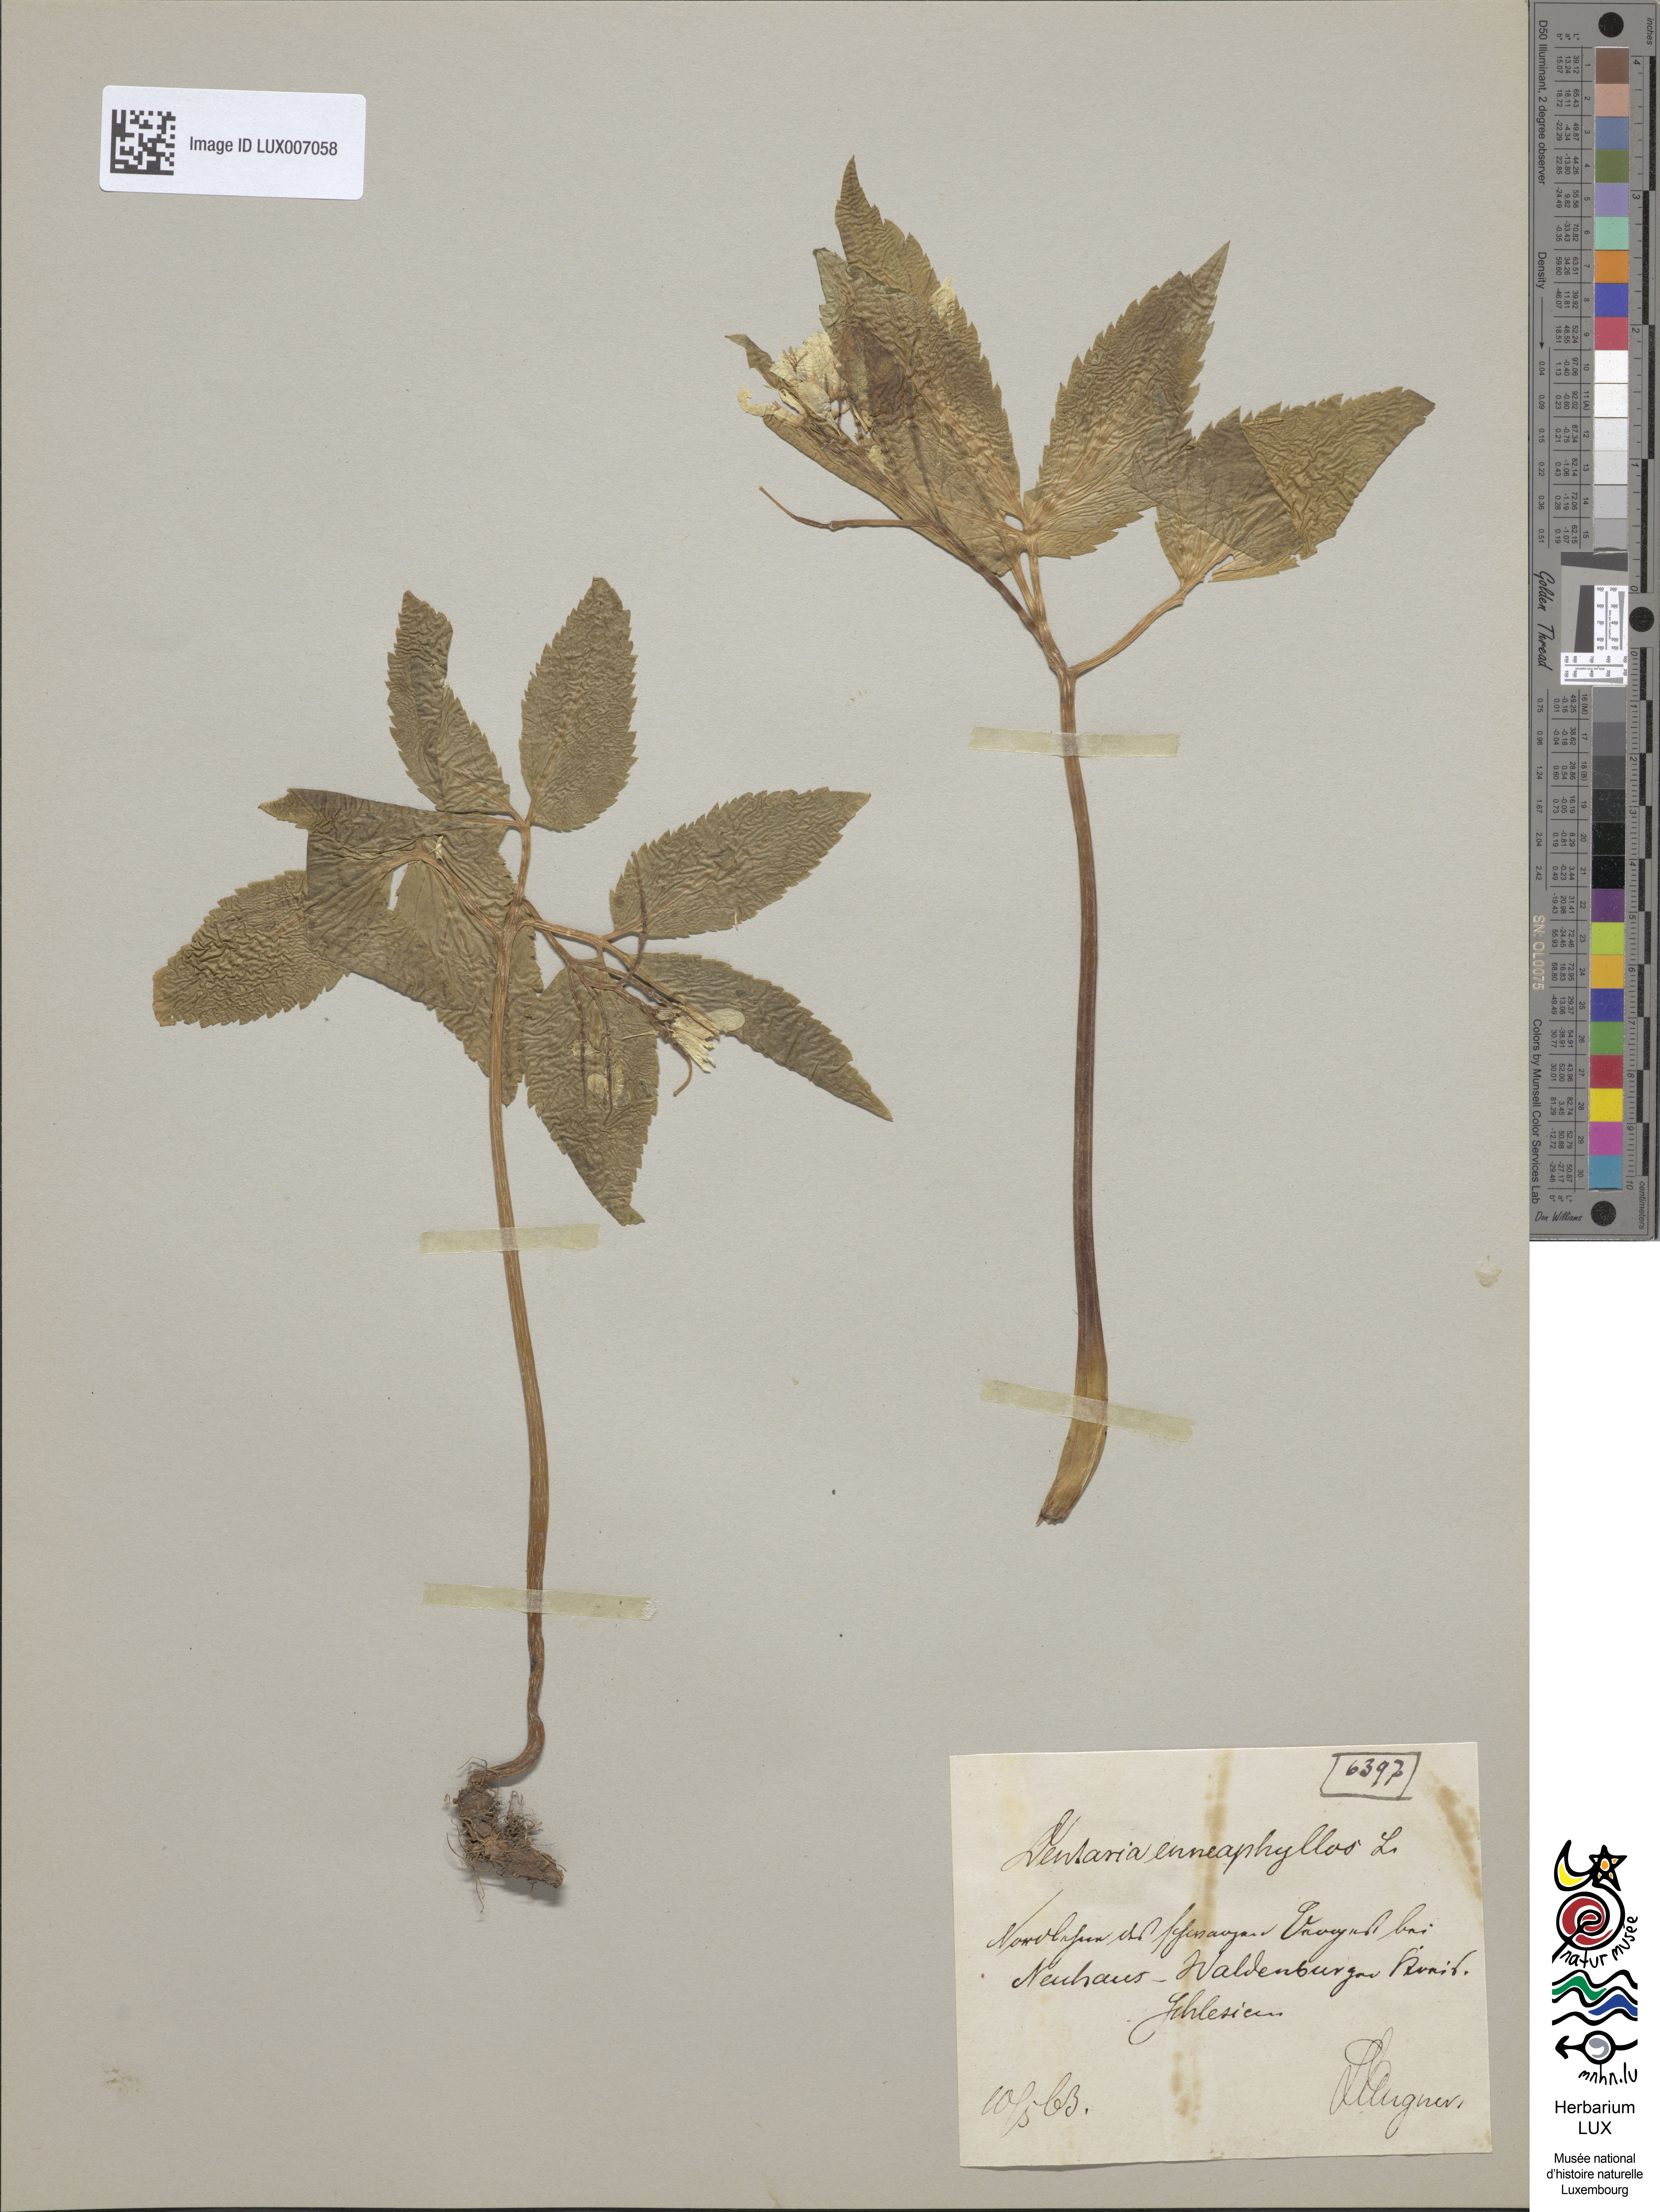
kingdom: Plantae
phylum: Tracheophyta
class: Magnoliopsida
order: Brassicales
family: Brassicaceae
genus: Cardamine
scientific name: Cardamine enneaphyllos
